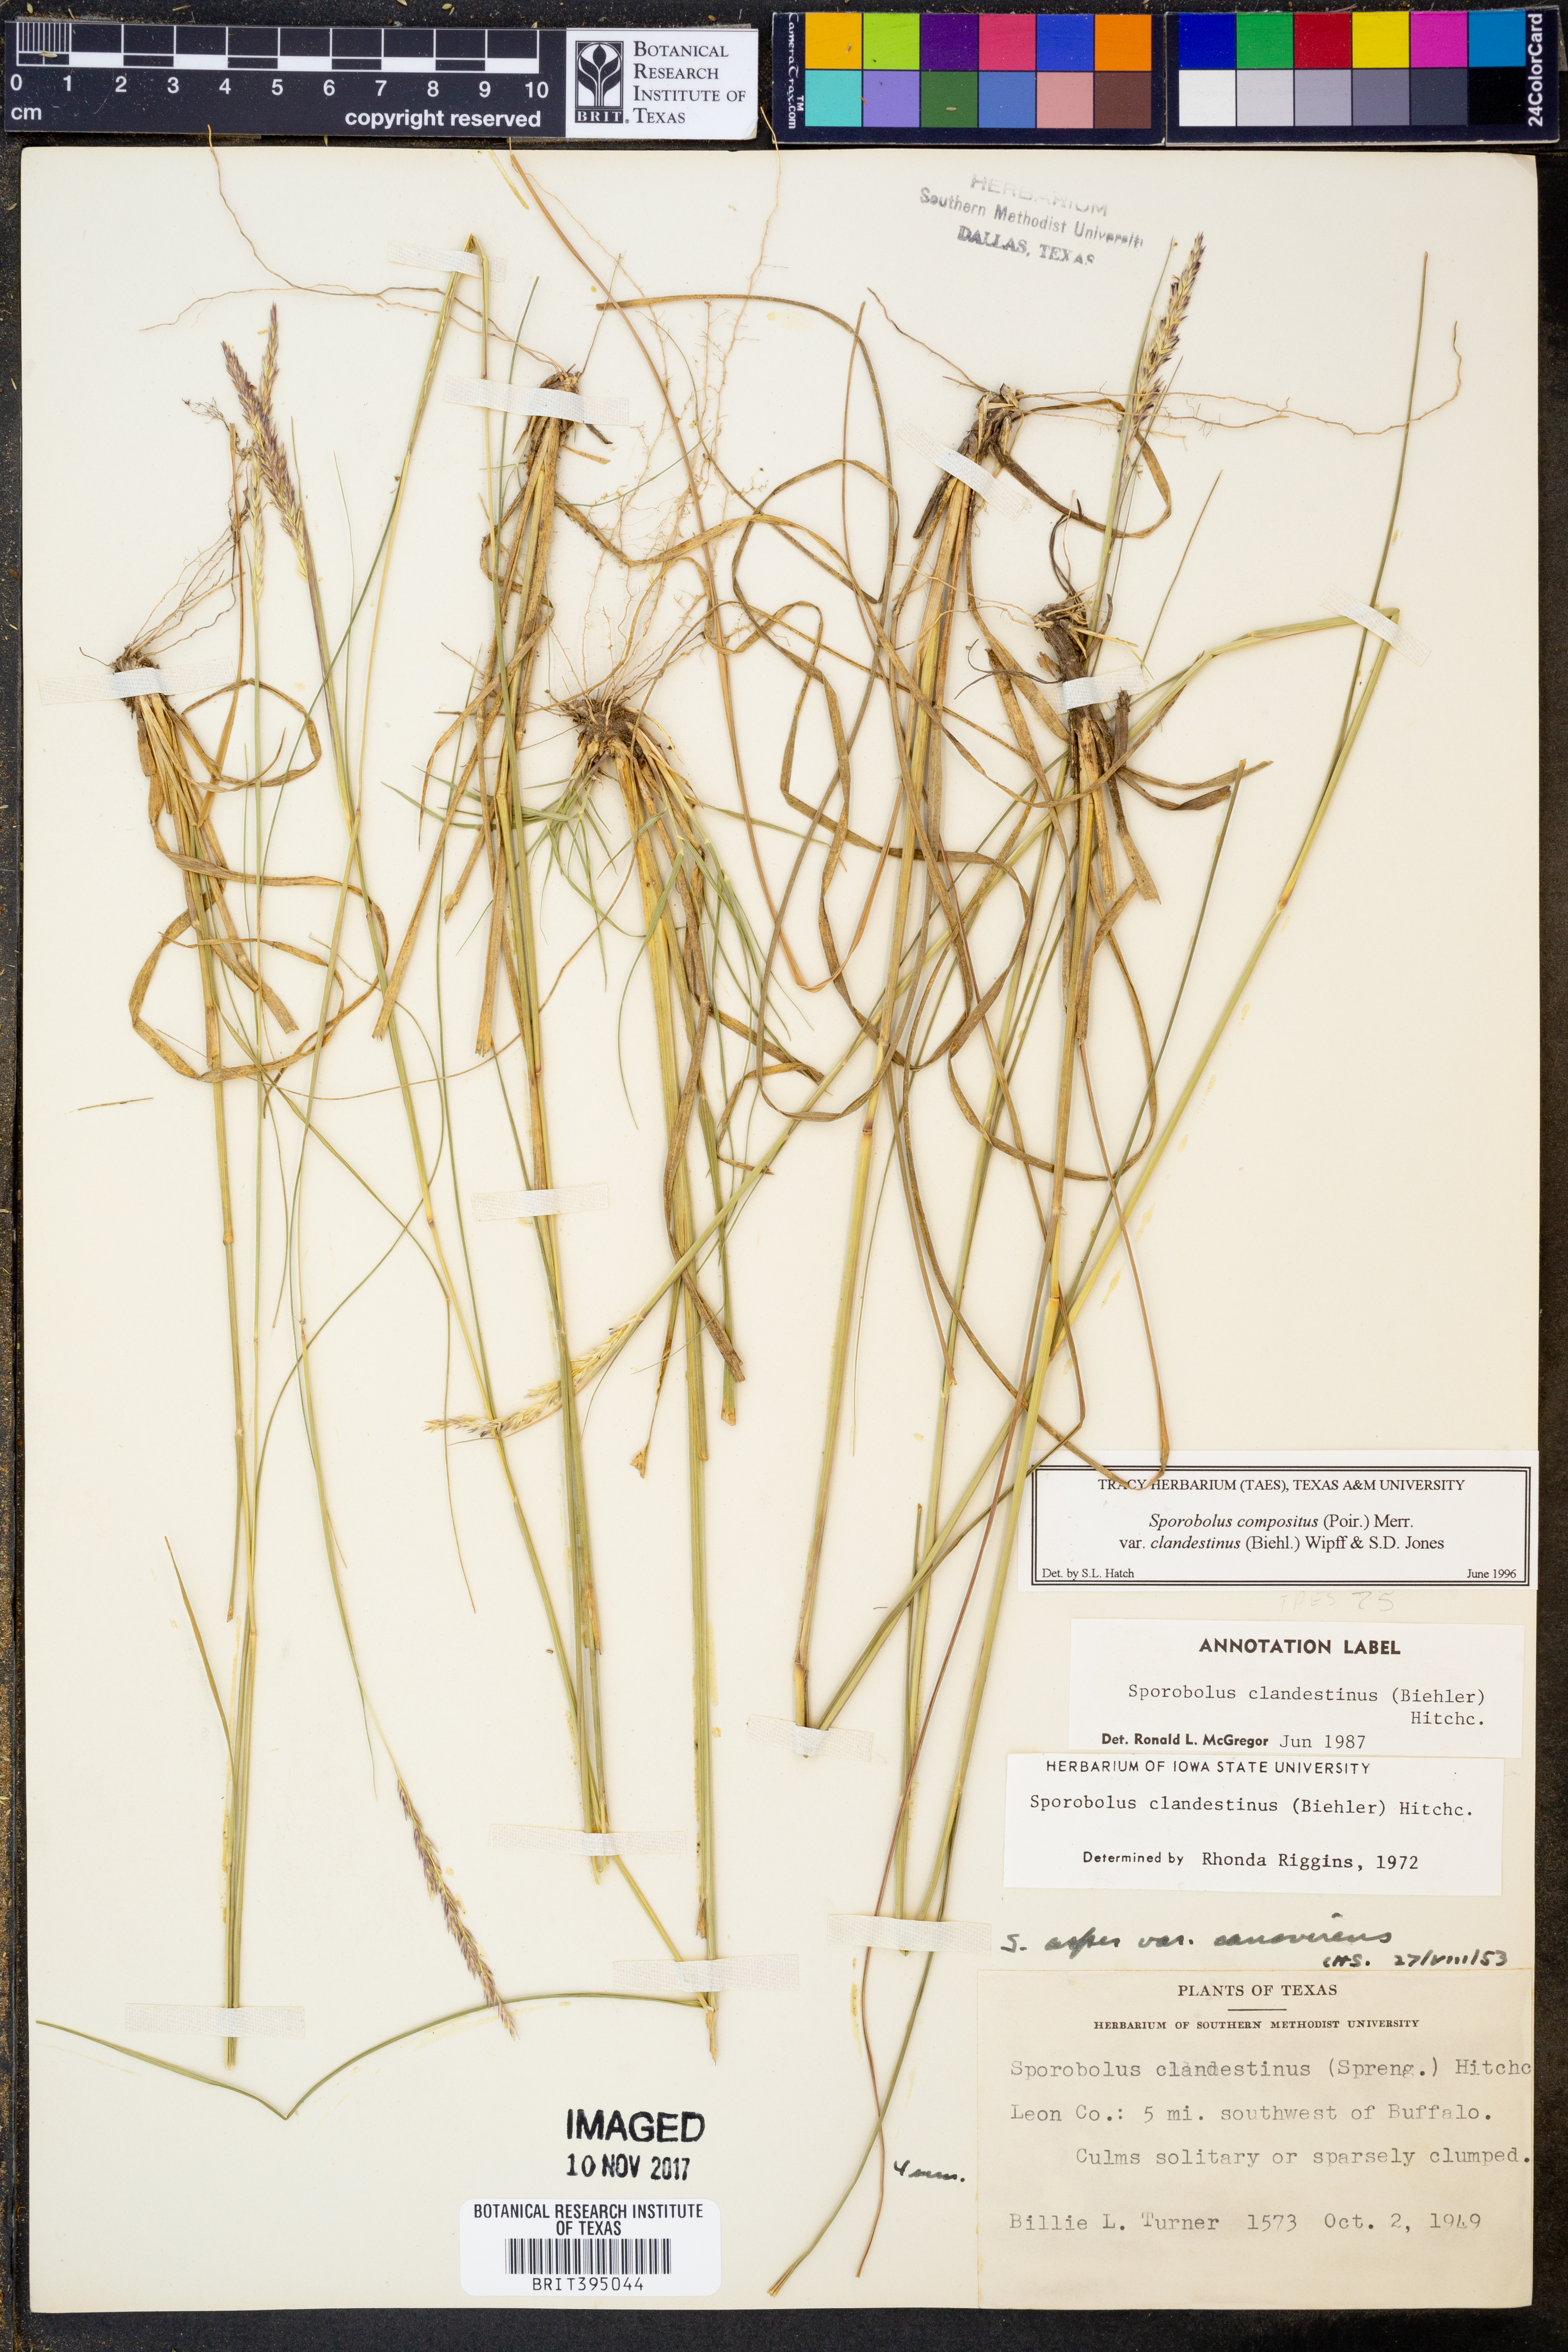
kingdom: Plantae
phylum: Tracheophyta
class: Liliopsida
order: Poales
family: Poaceae
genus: Sporobolus
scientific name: Sporobolus clandestinus
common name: Hidden dropseed
